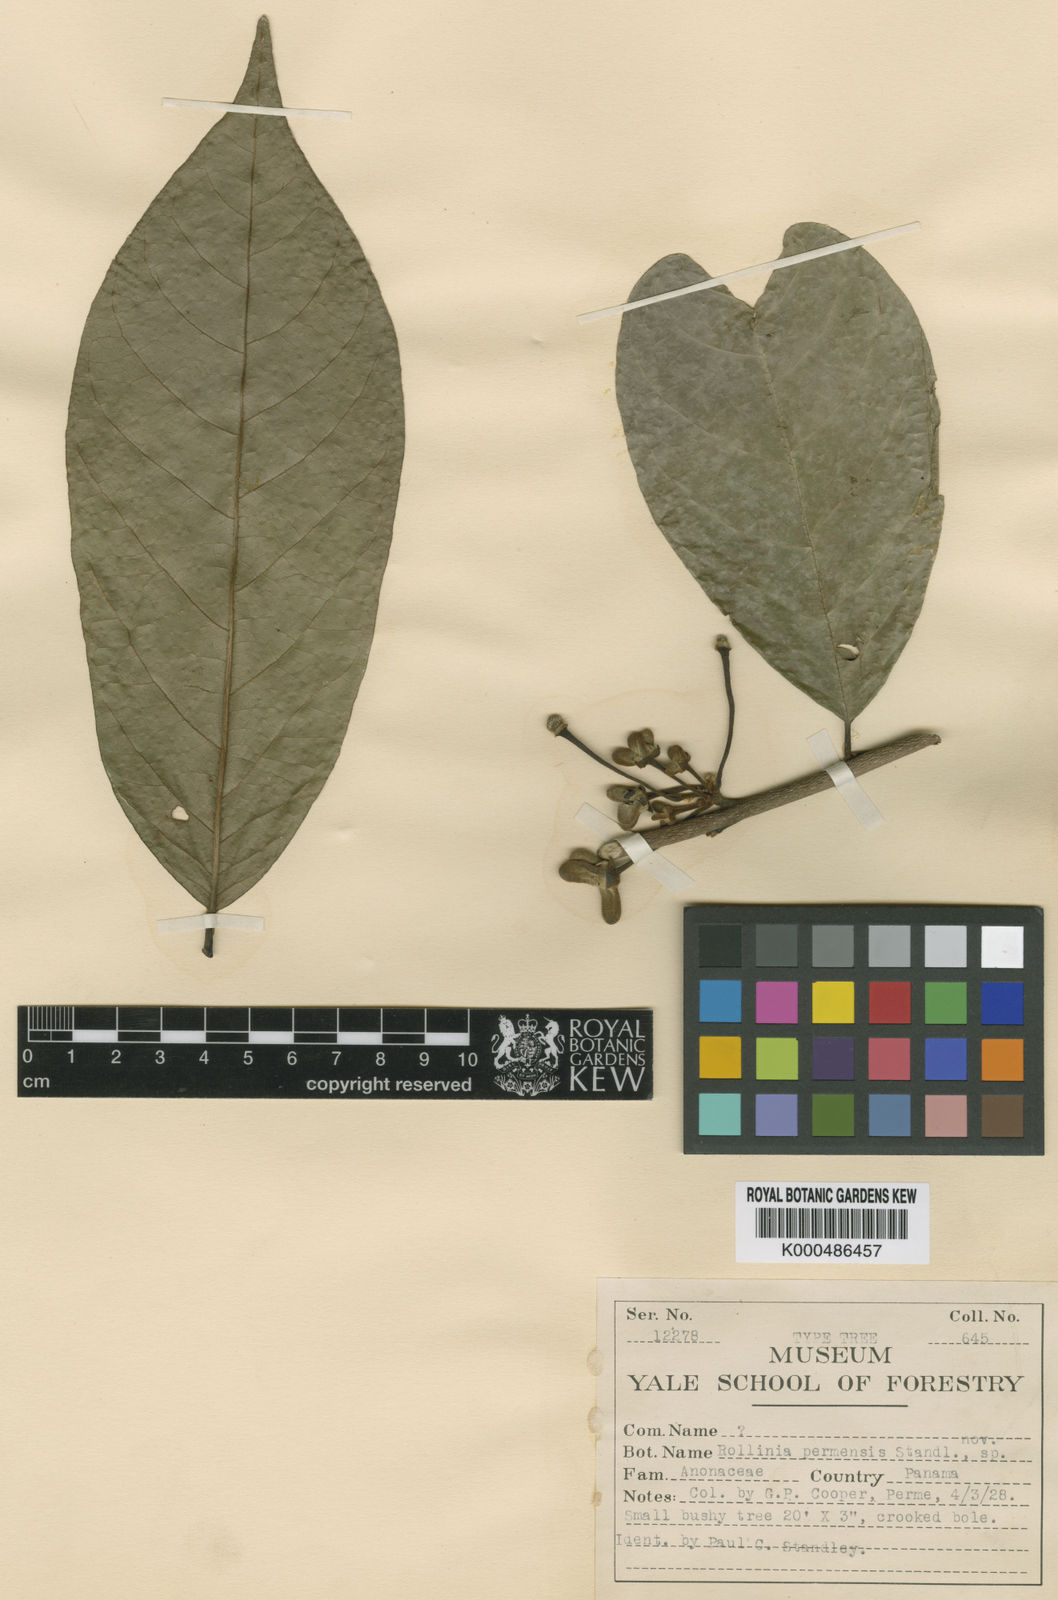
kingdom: Plantae
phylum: Tracheophyta
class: Magnoliopsida
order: Magnoliales
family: Annonaceae
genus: Annona
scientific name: Annona mucosa
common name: Sugar apple
